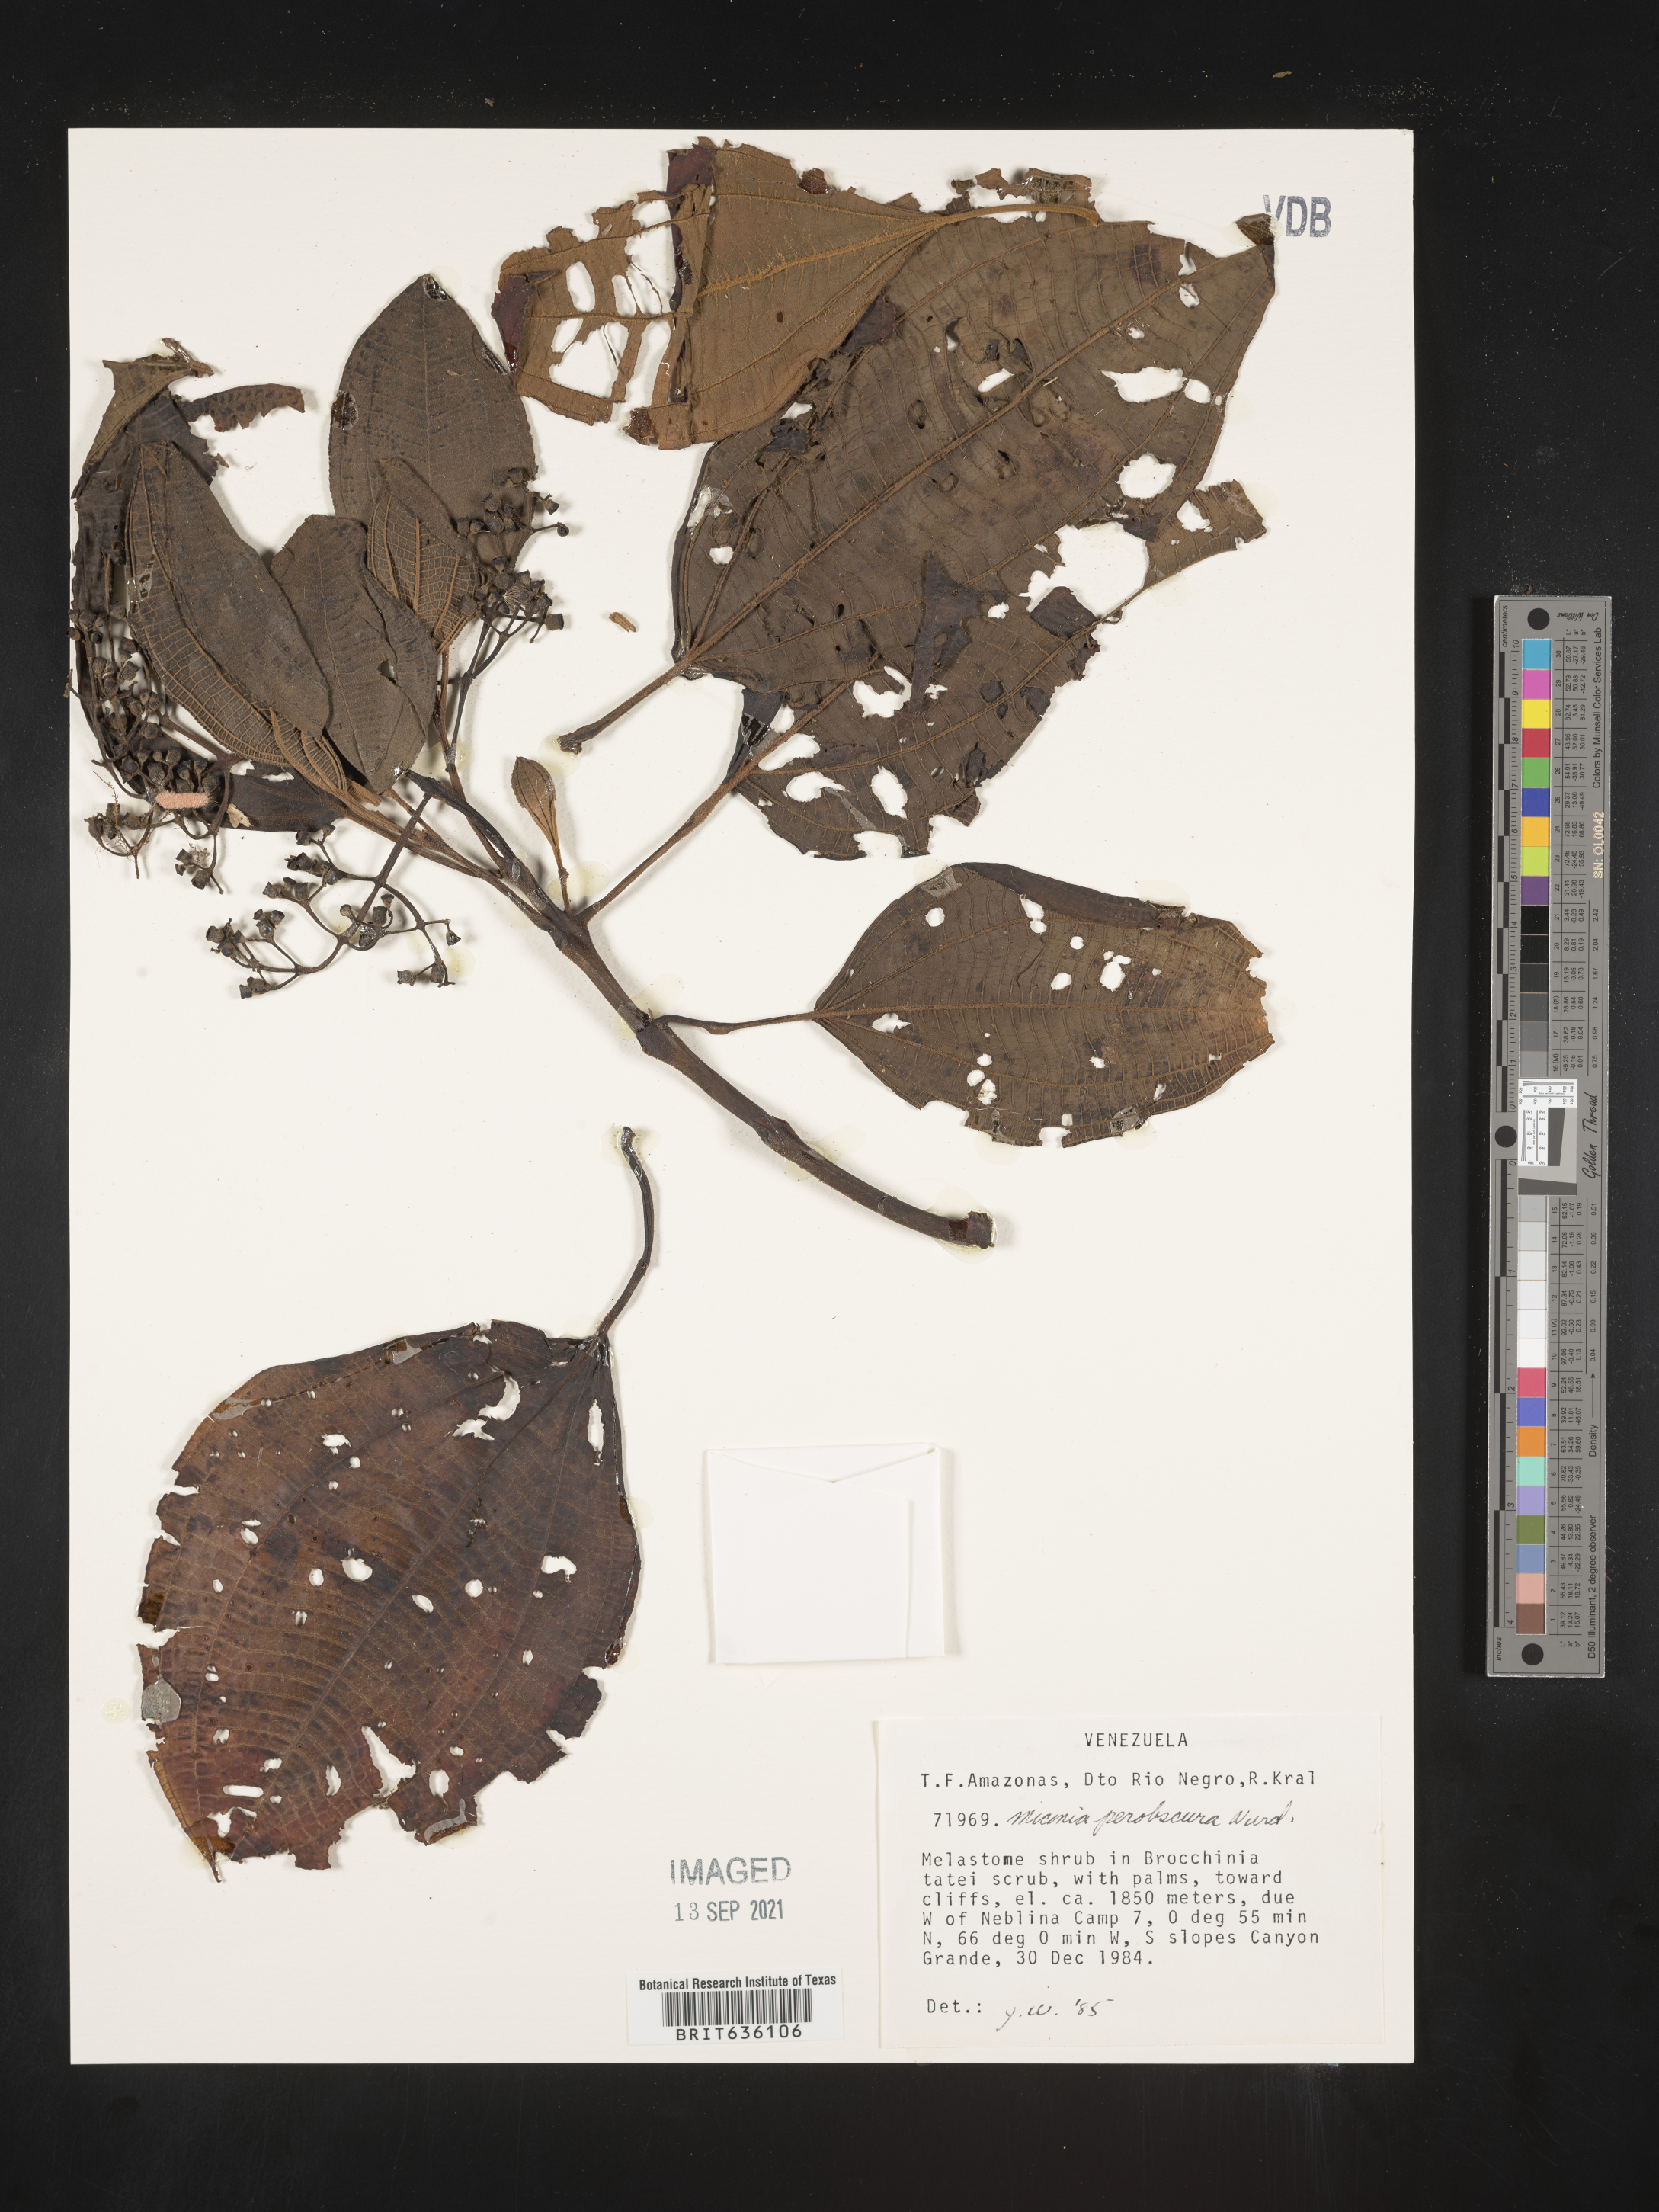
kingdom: Plantae
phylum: Tracheophyta
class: Magnoliopsida
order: Myrtales
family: Melastomataceae
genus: Miconia
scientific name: Miconia
